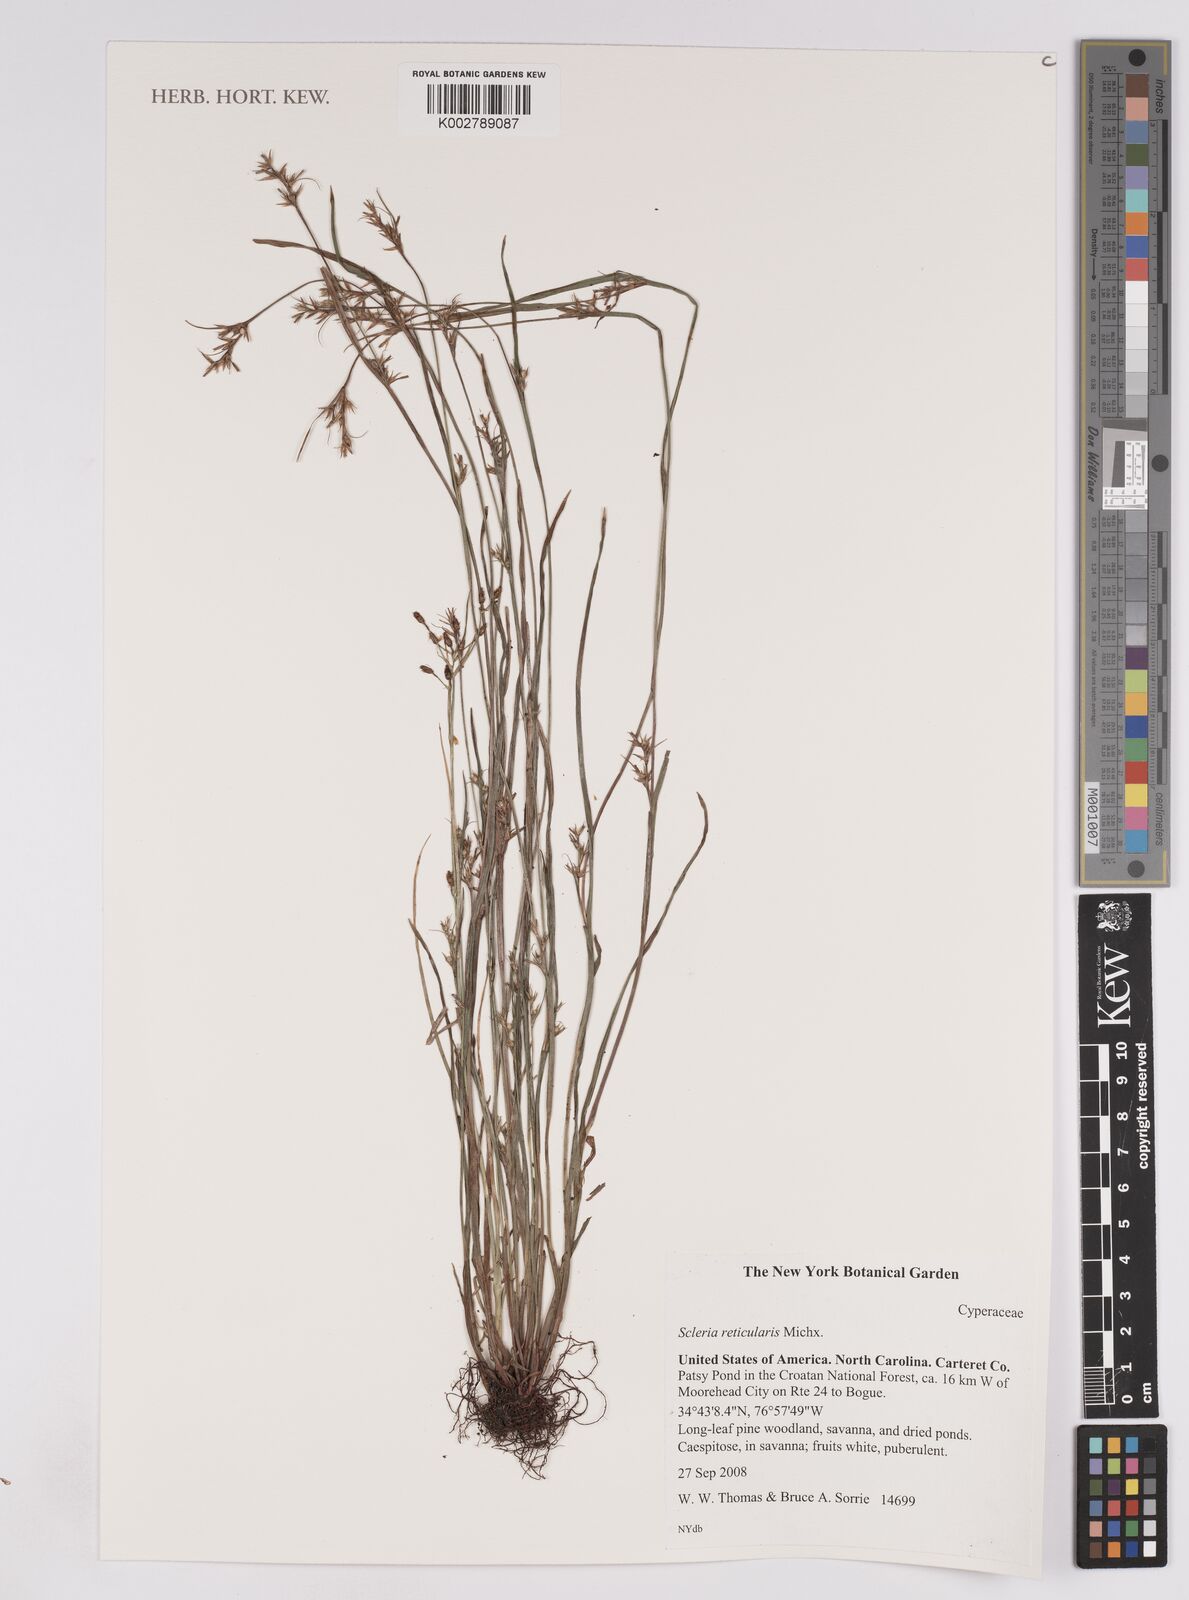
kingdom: Plantae
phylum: Tracheophyta
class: Liliopsida
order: Poales
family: Cyperaceae
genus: Scleria
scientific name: Scleria reticularis
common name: Netted nutrush
